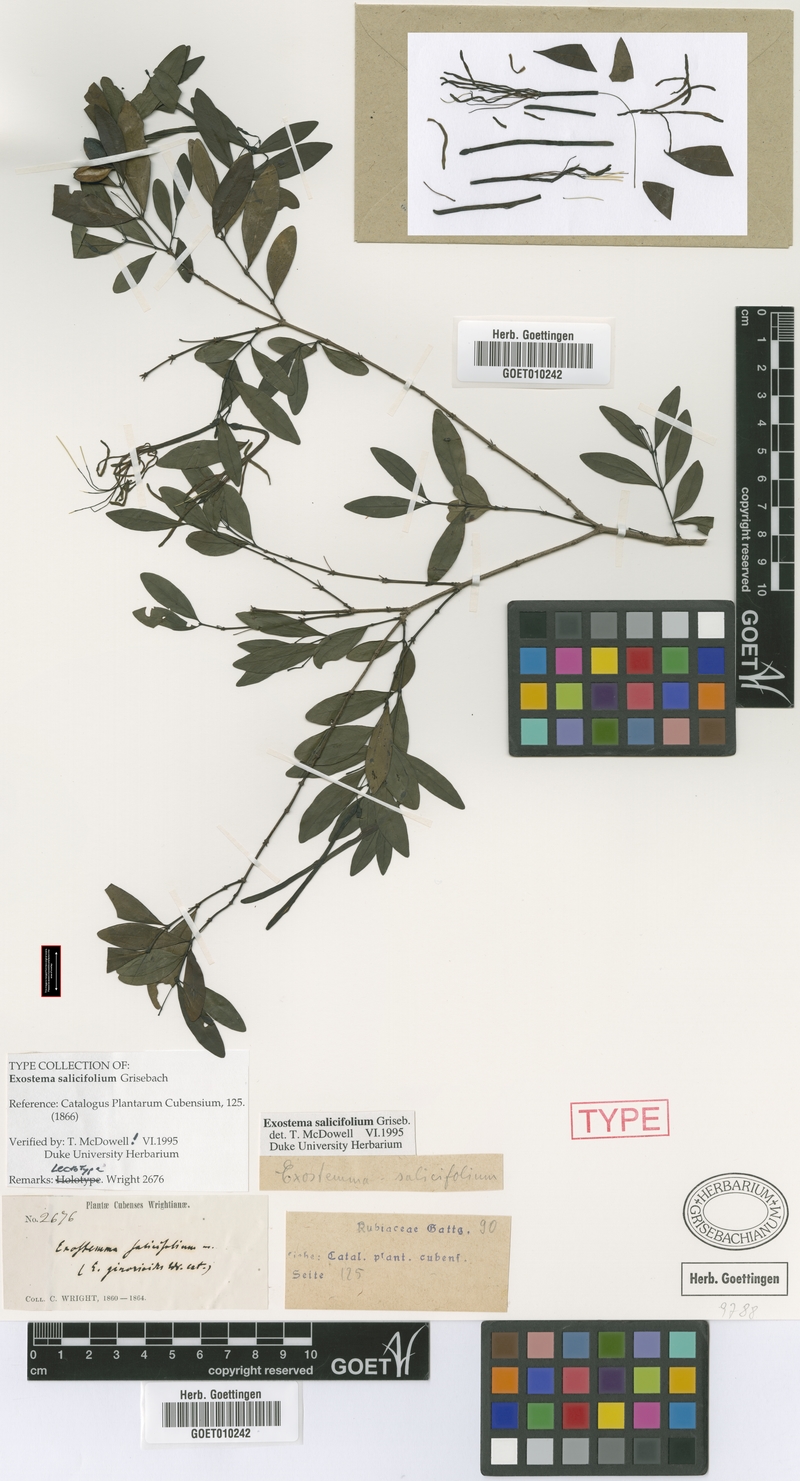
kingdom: Plantae
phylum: Tracheophyta
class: Magnoliopsida
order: Gentianales
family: Rubiaceae
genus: Exostema
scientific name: Exostema salicifolium
